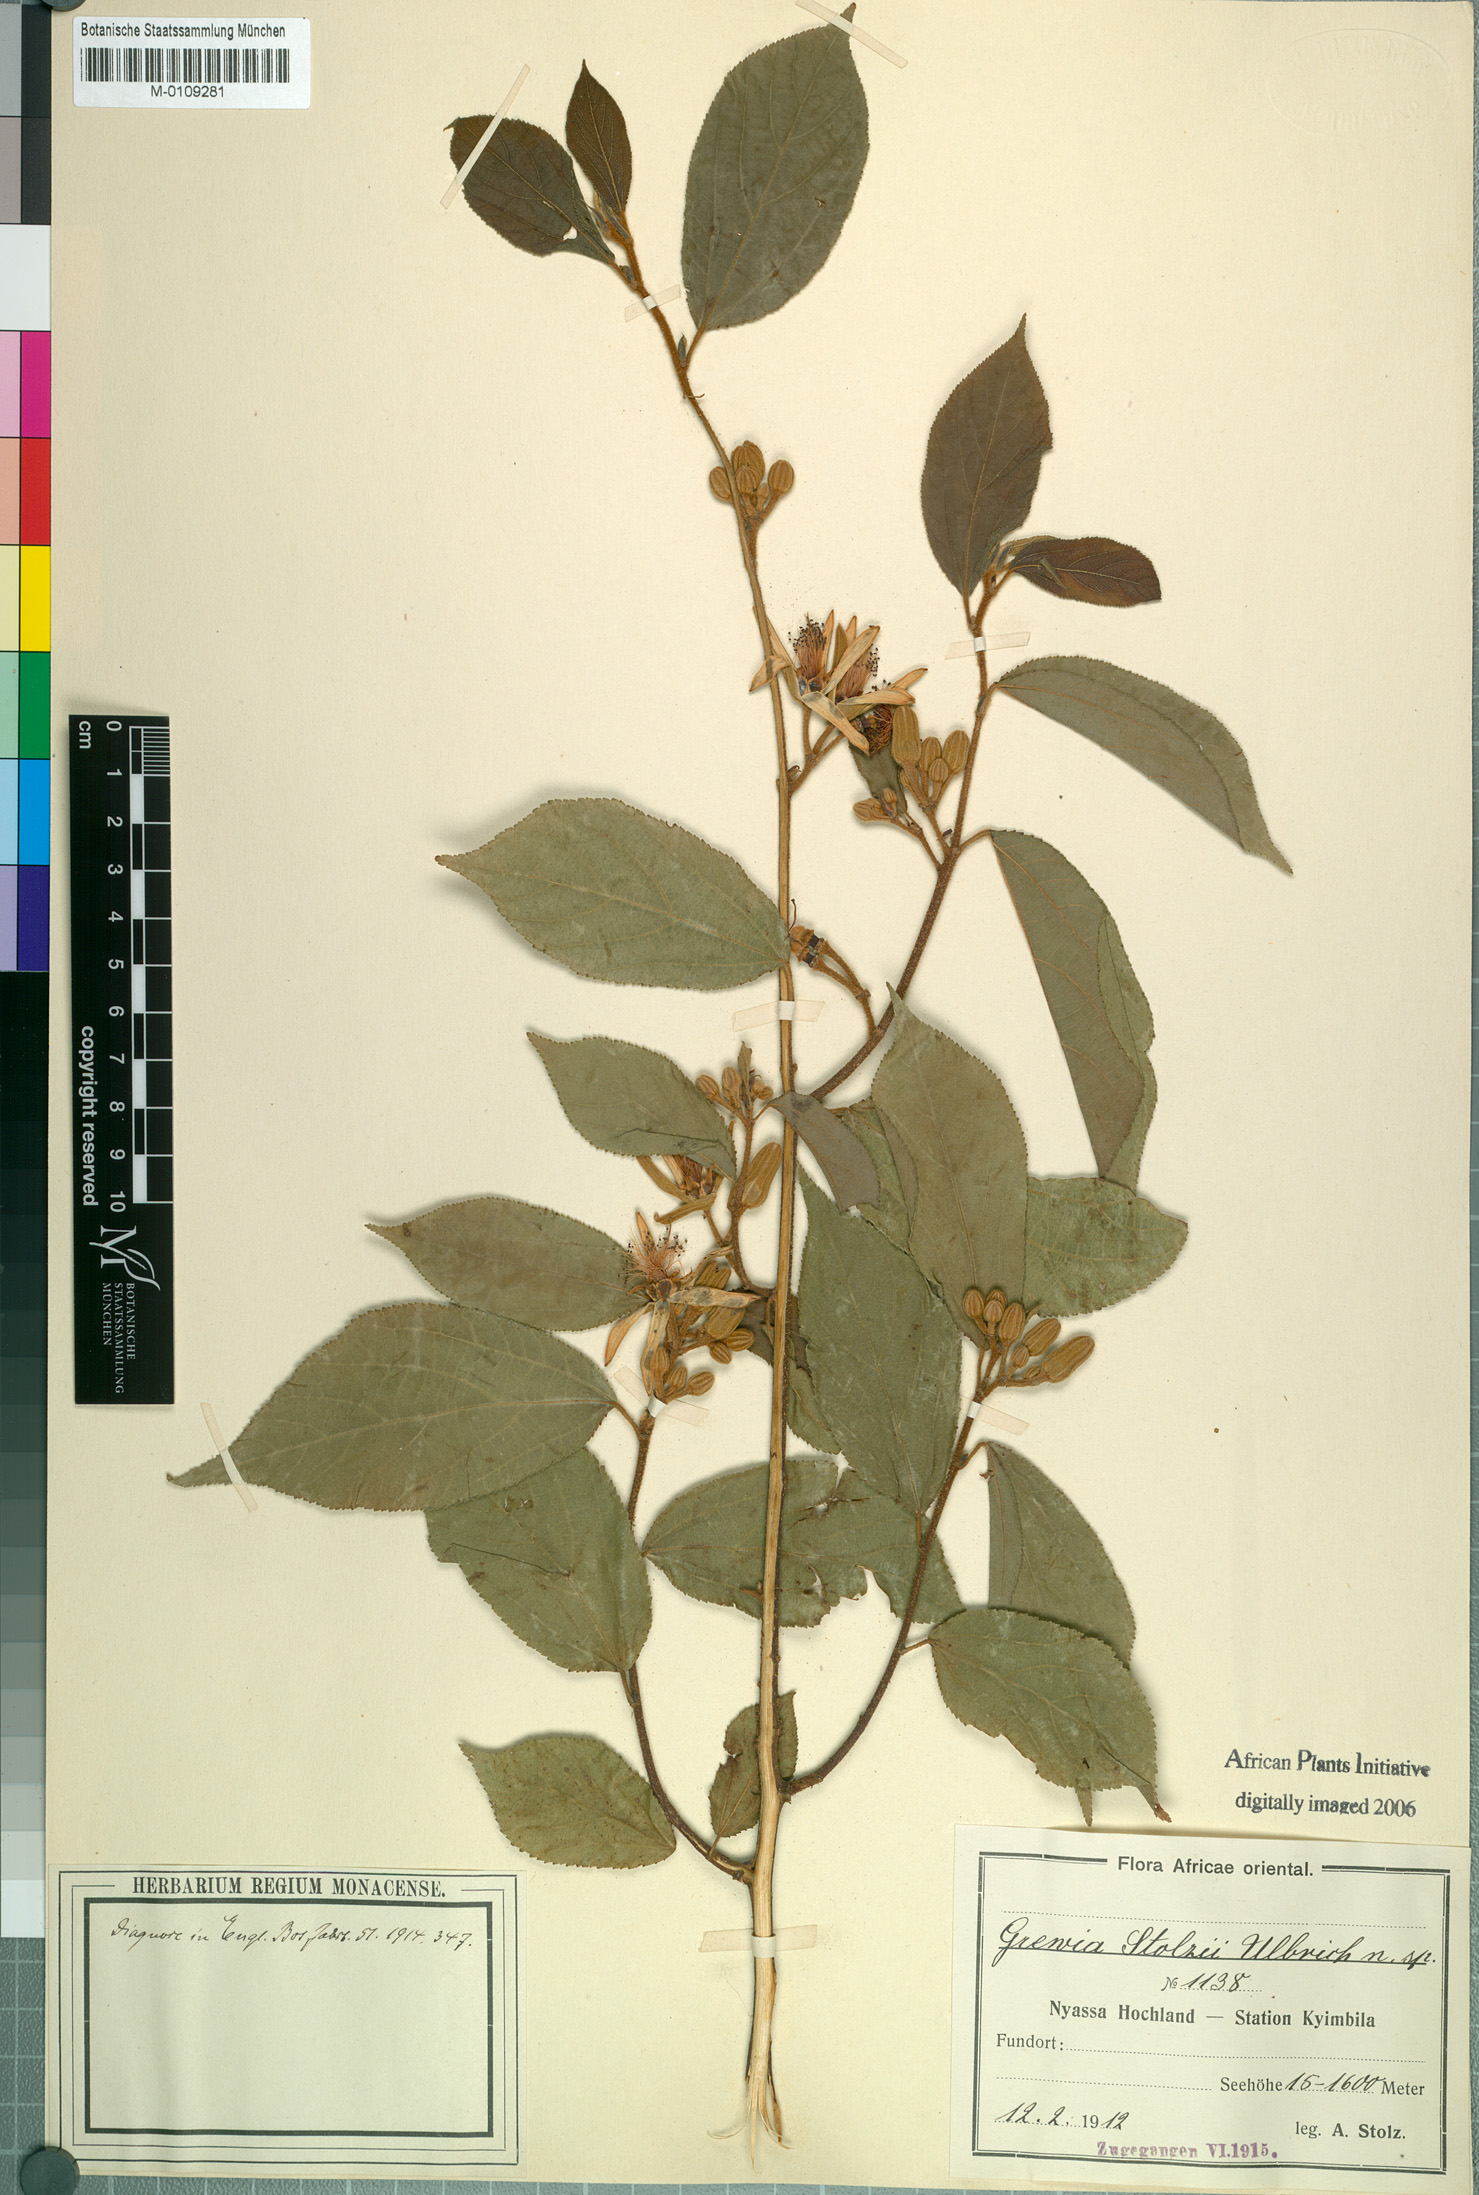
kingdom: Plantae
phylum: Tracheophyta
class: Magnoliopsida
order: Malvales
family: Malvaceae
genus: Grewia
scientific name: Grewia stolzii
